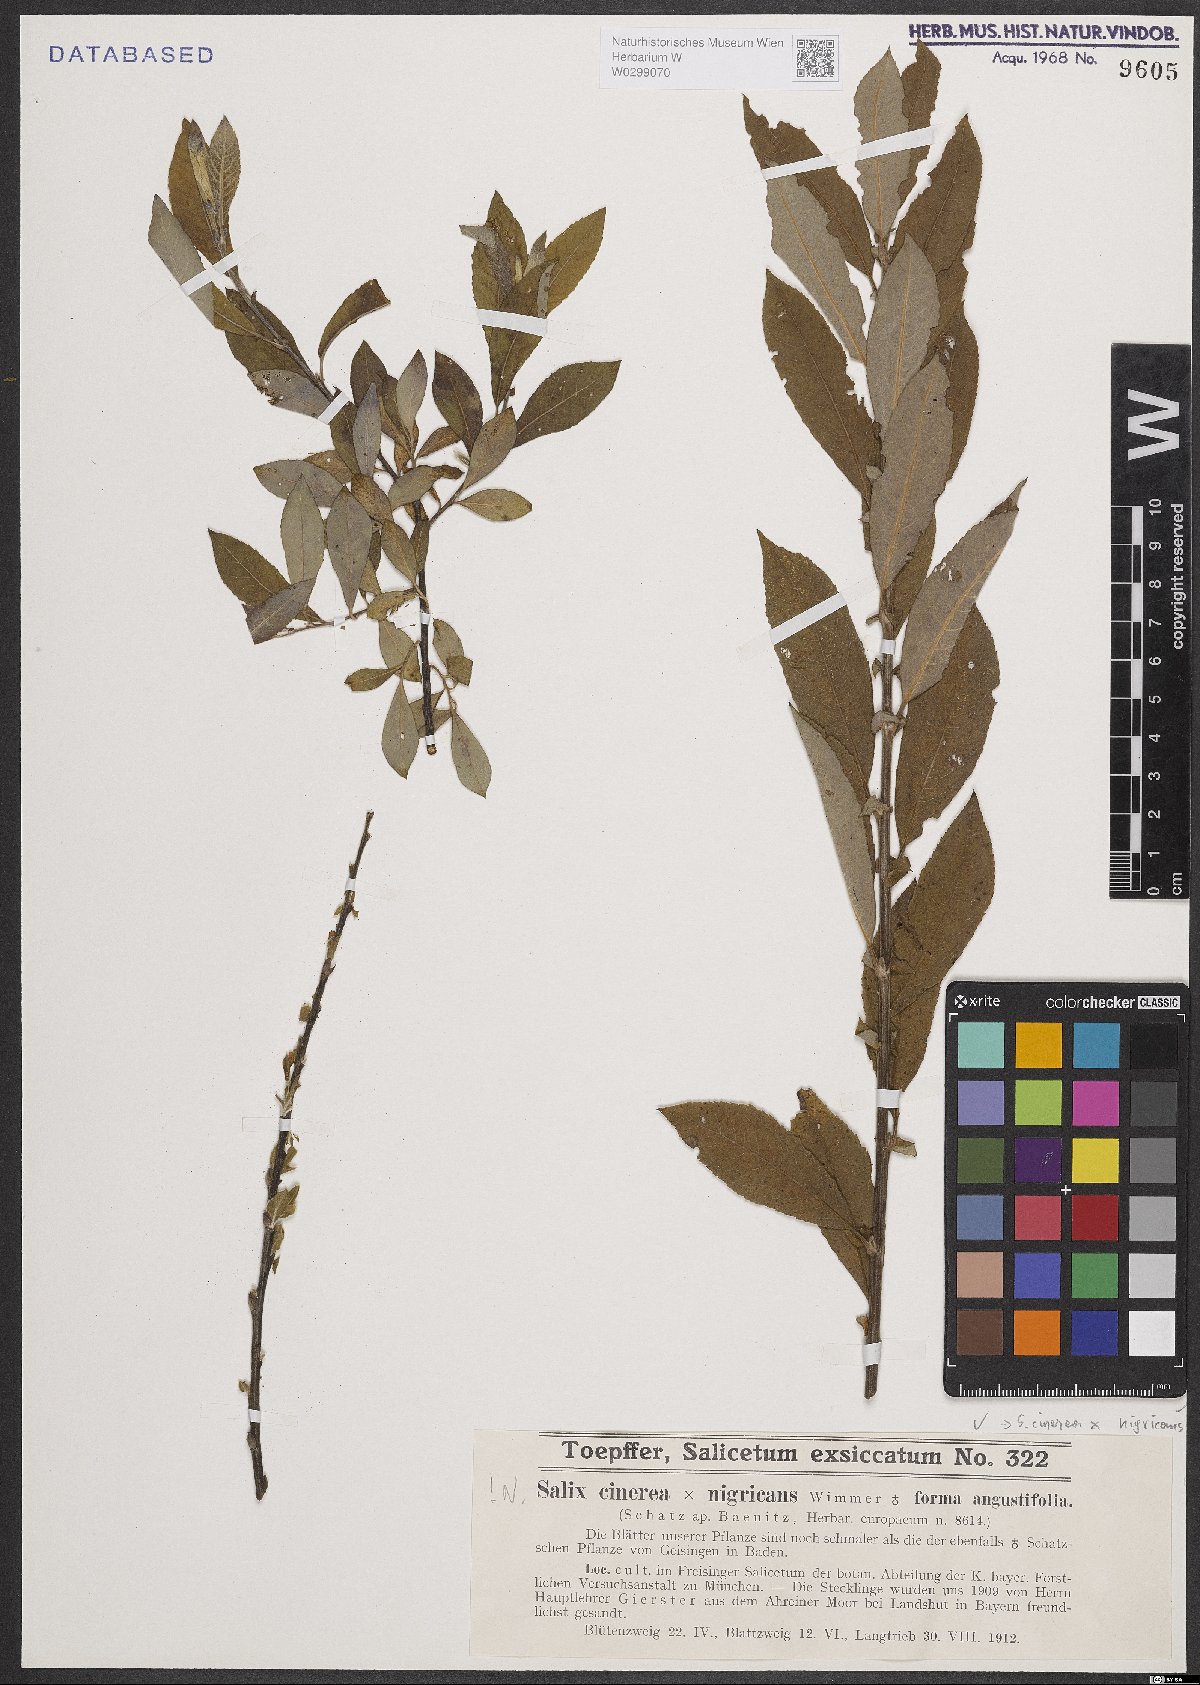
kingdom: Plantae
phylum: Tracheophyta
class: Magnoliopsida
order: Malpighiales
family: Salicaceae
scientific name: Salicaceae
